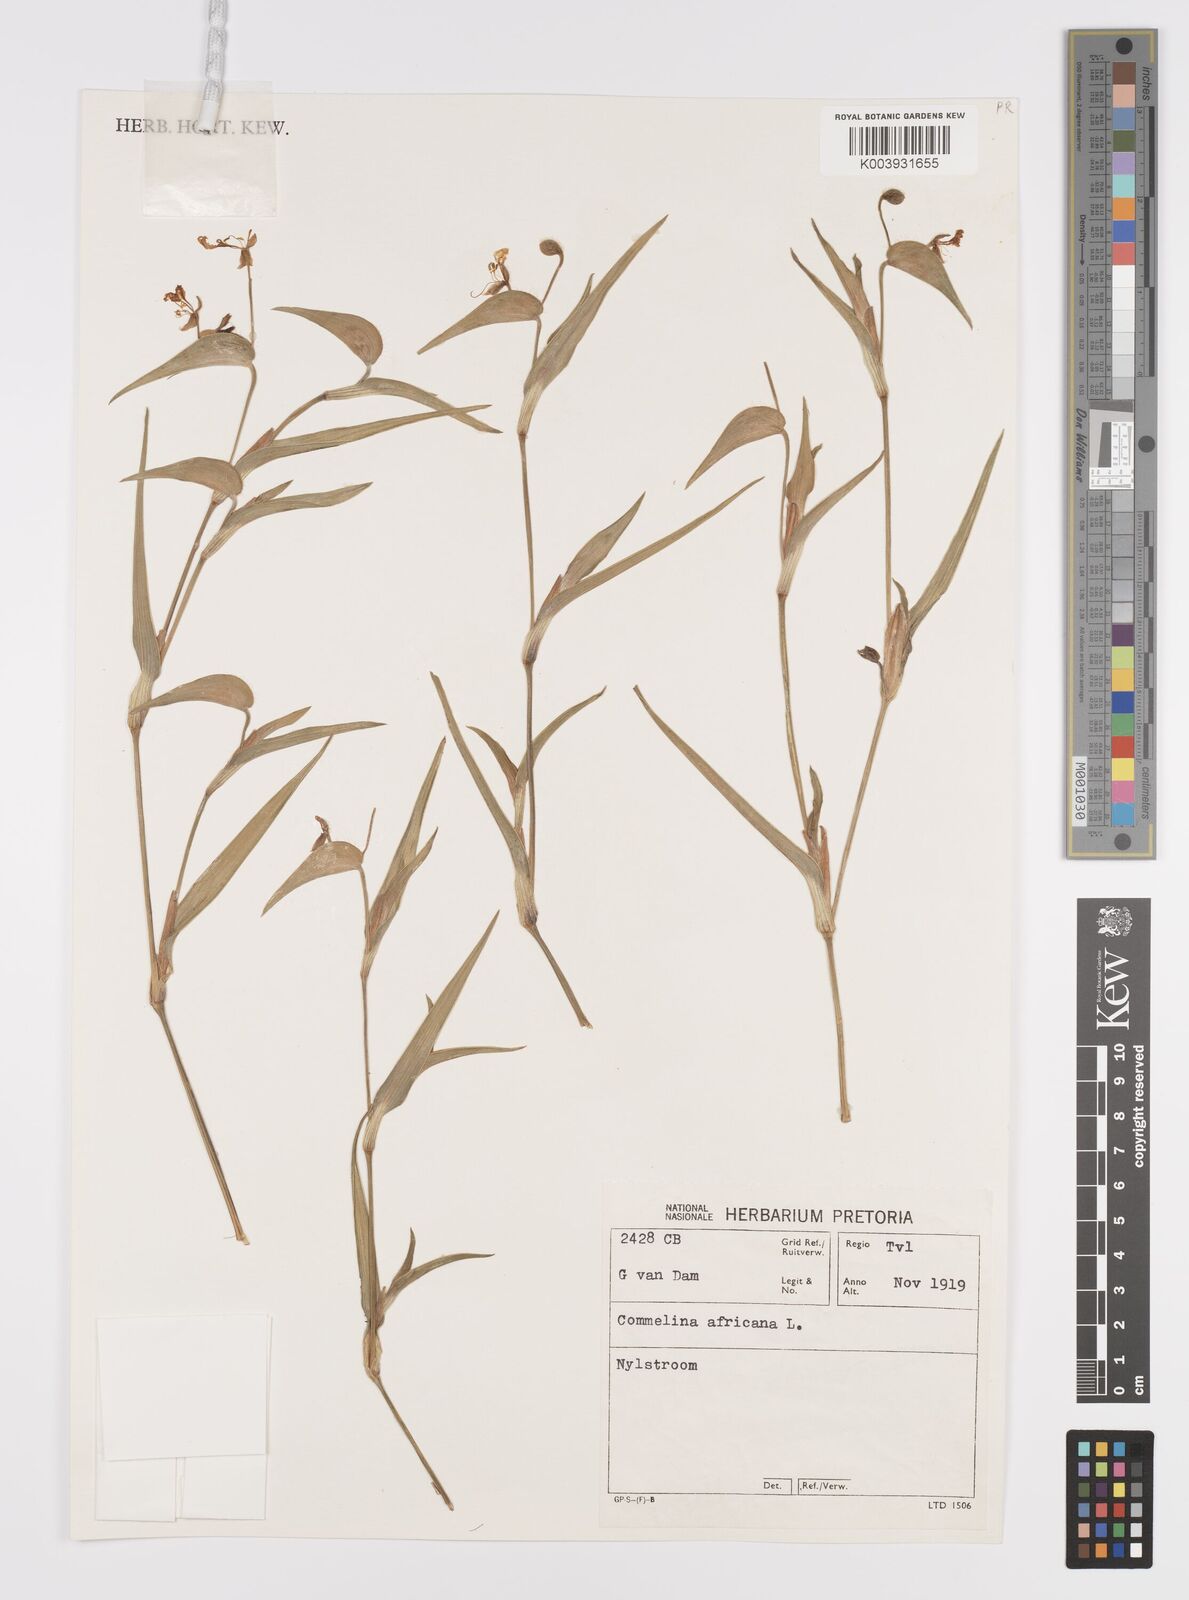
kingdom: Plantae
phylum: Tracheophyta
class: Liliopsida
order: Commelinales
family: Commelinaceae
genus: Commelina
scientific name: Commelina africana
